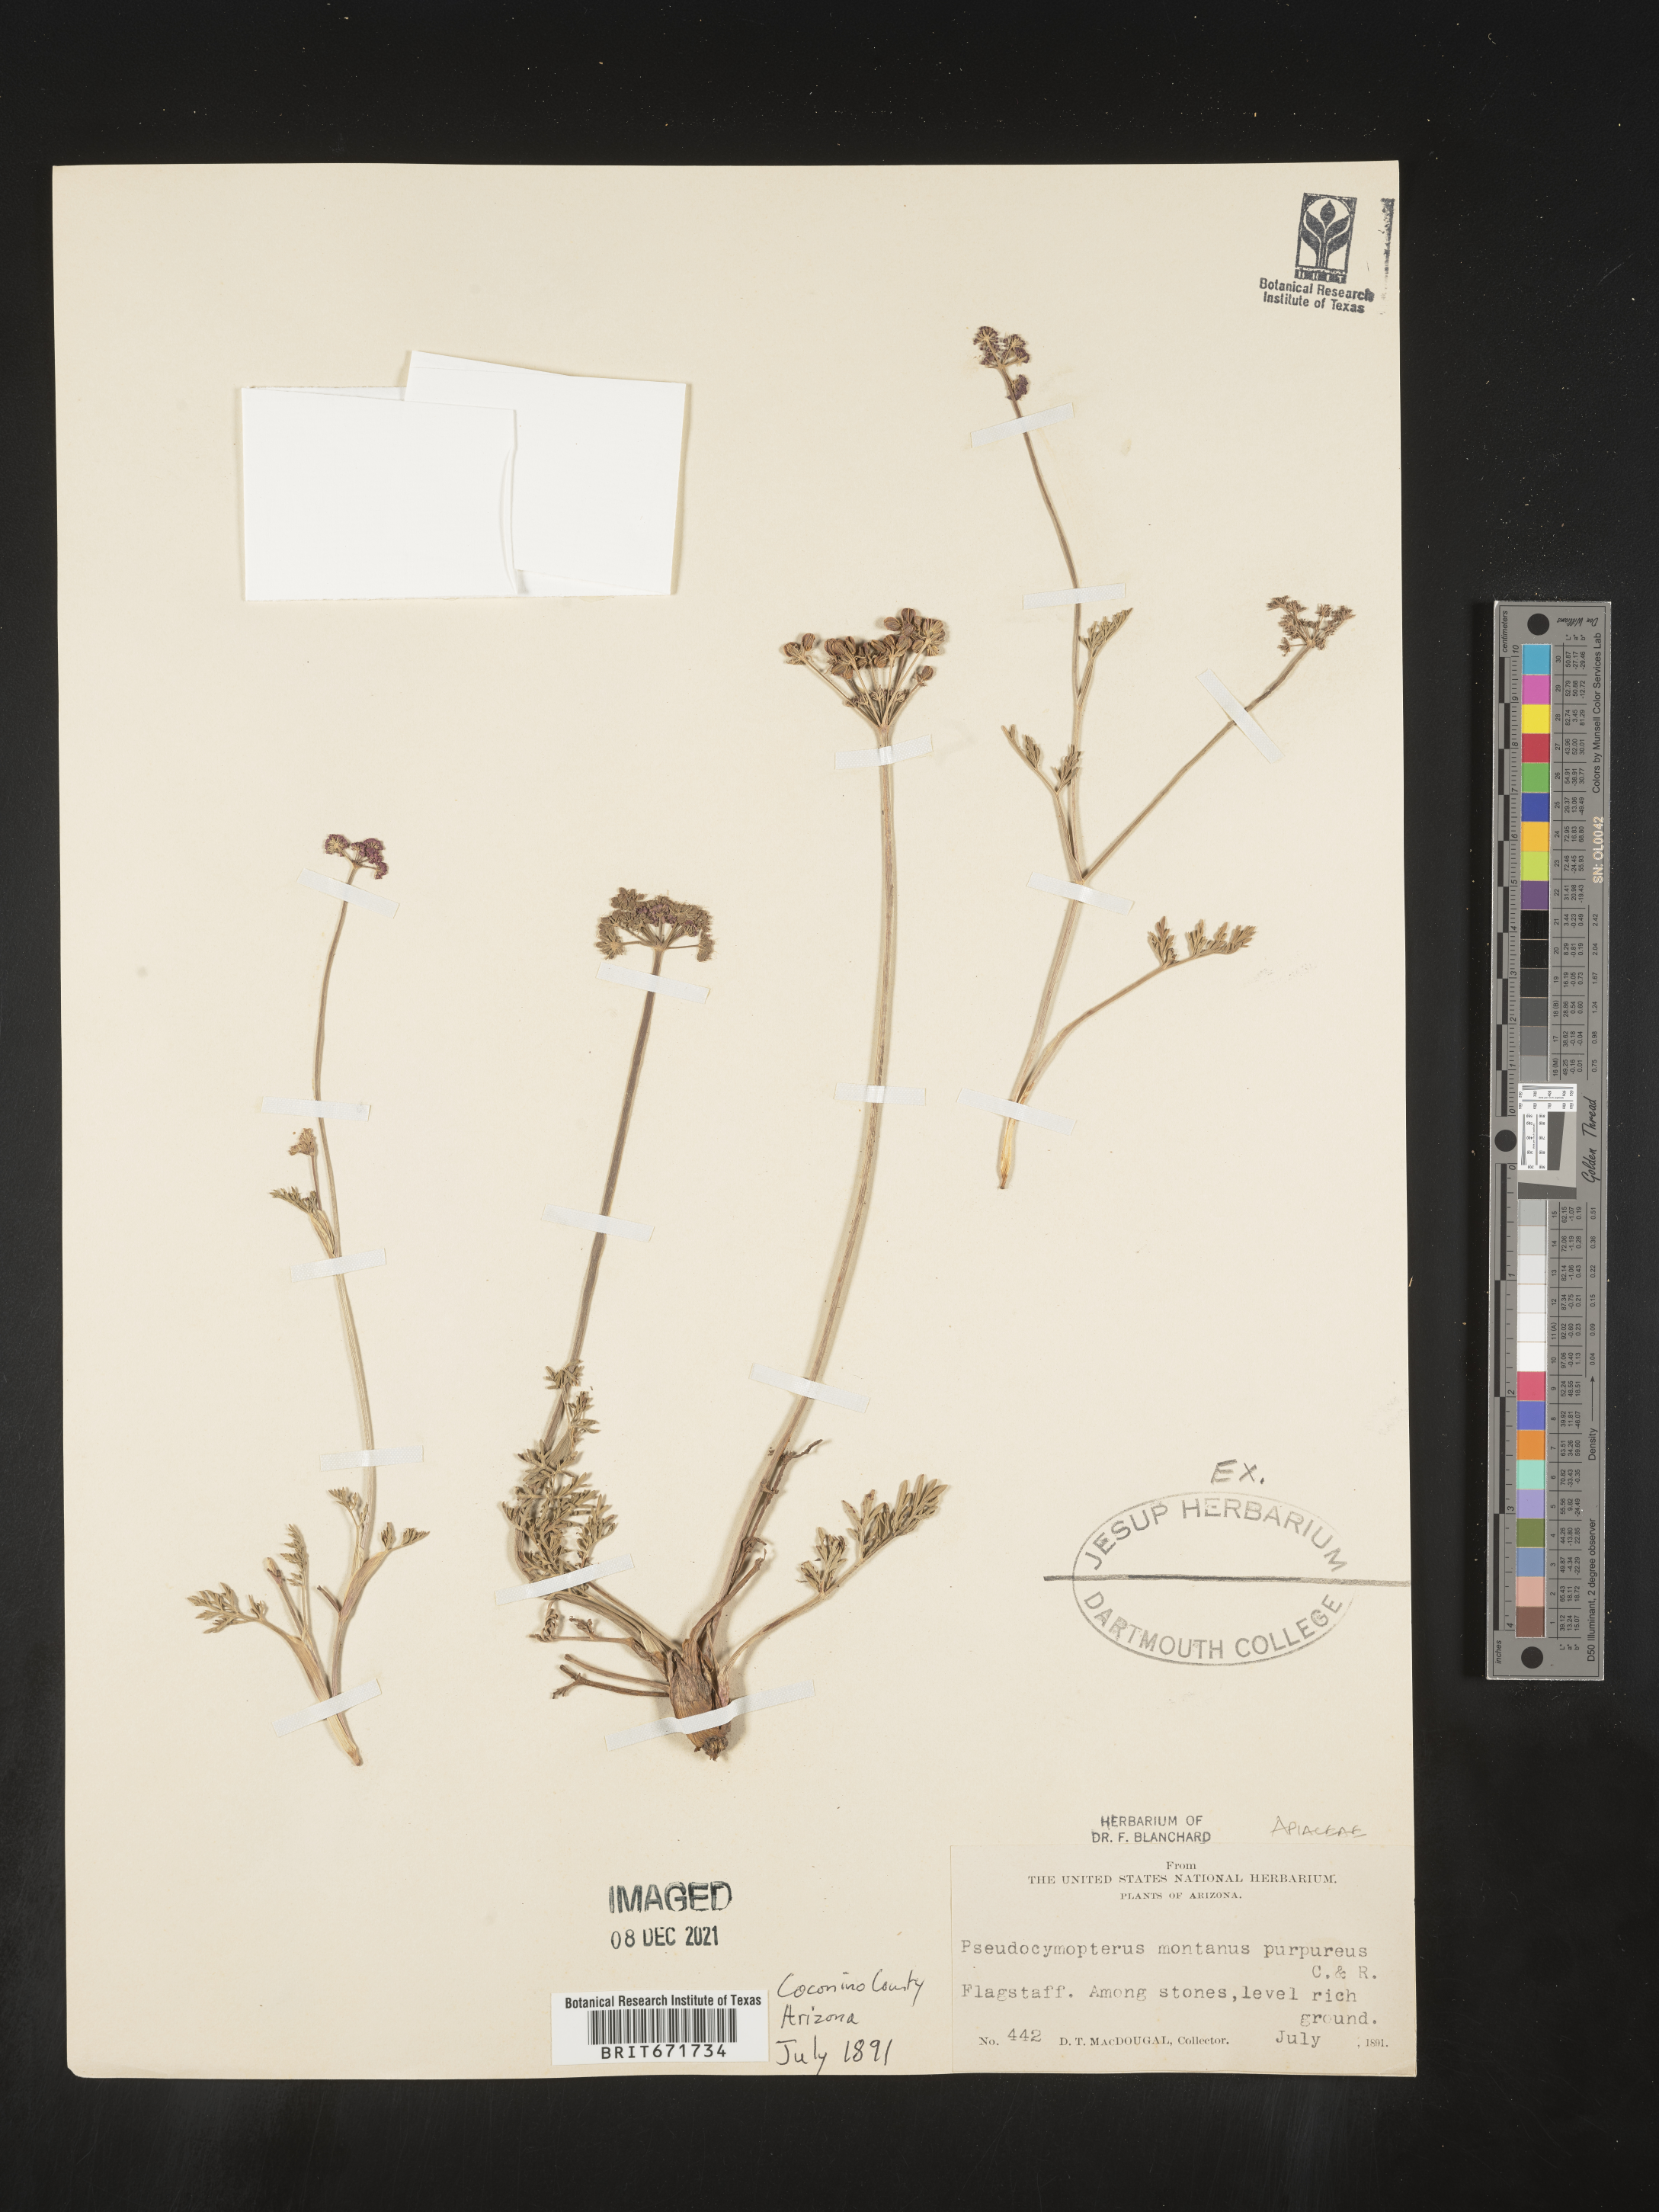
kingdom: Plantae
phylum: Tracheophyta
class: Magnoliopsida
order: Apiales
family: Apiaceae
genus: Cymopterus
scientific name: Cymopterus lemmonii
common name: Lemmon's spring-parsley
